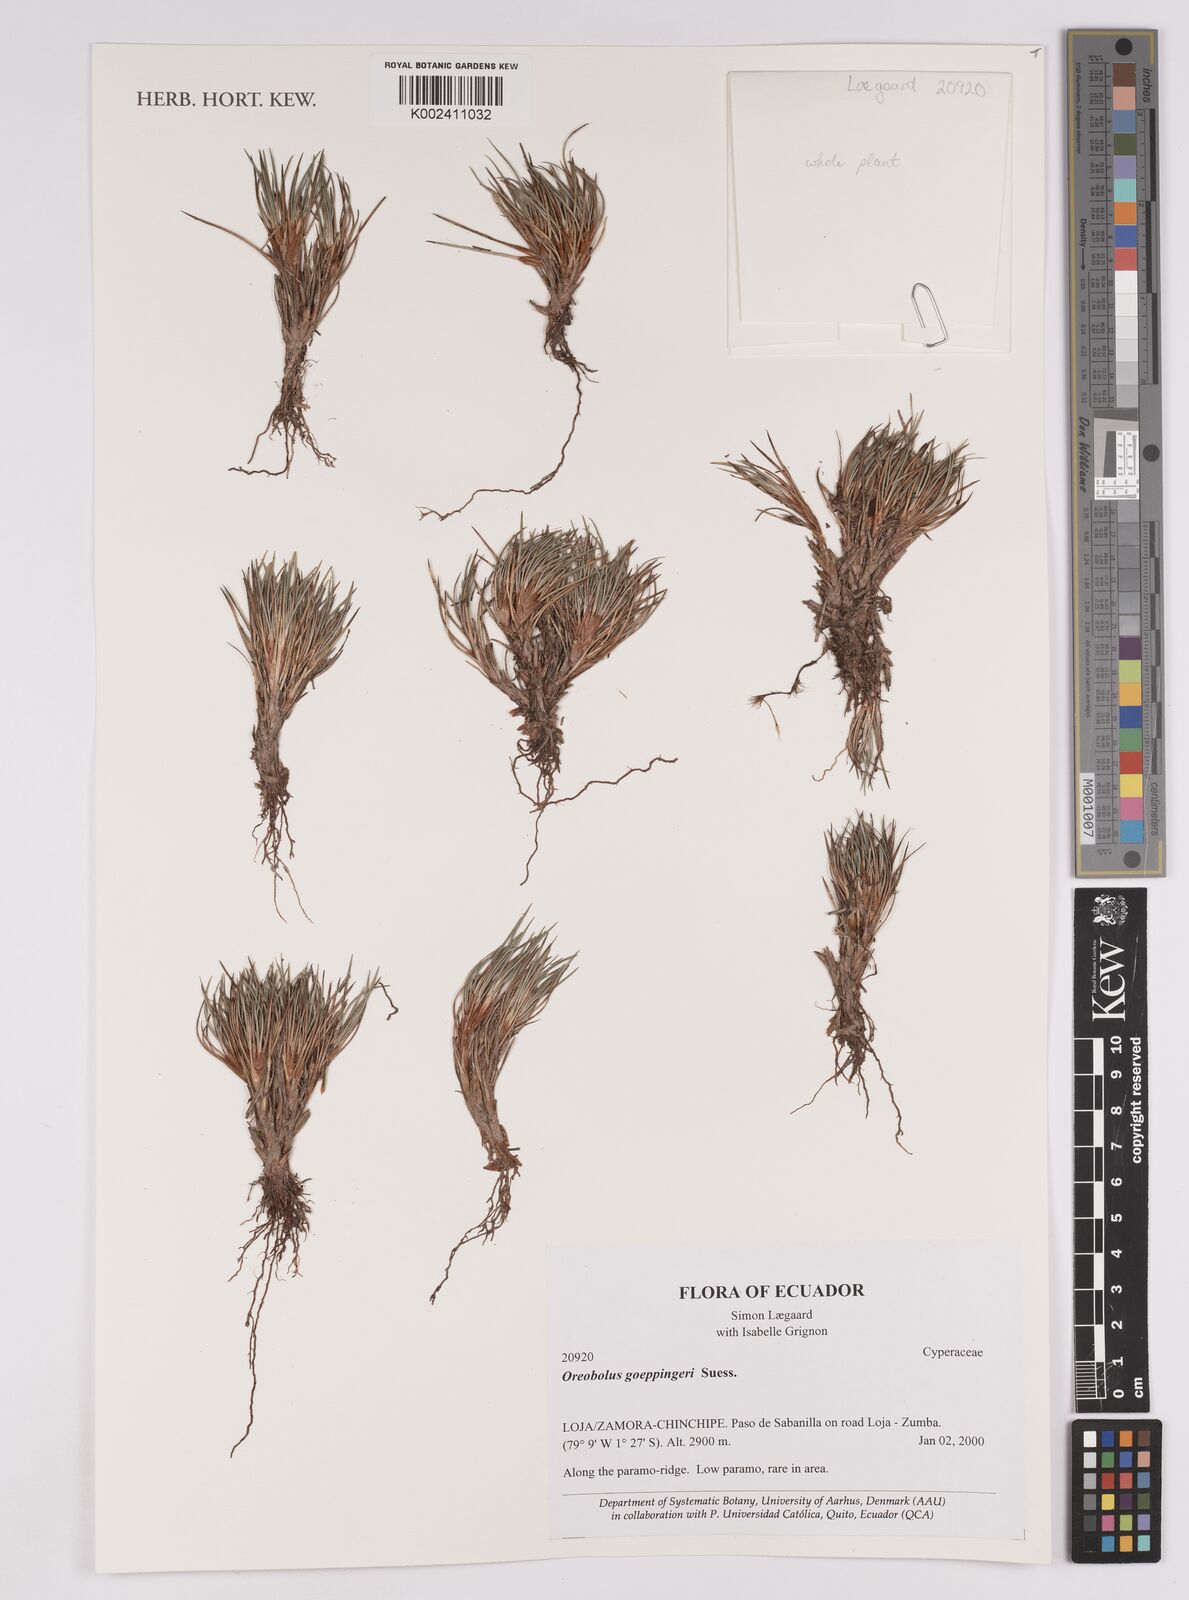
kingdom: Plantae
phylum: Tracheophyta
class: Liliopsida
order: Poales
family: Cyperaceae
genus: Oreobolus
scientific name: Oreobolus goeppingeri
